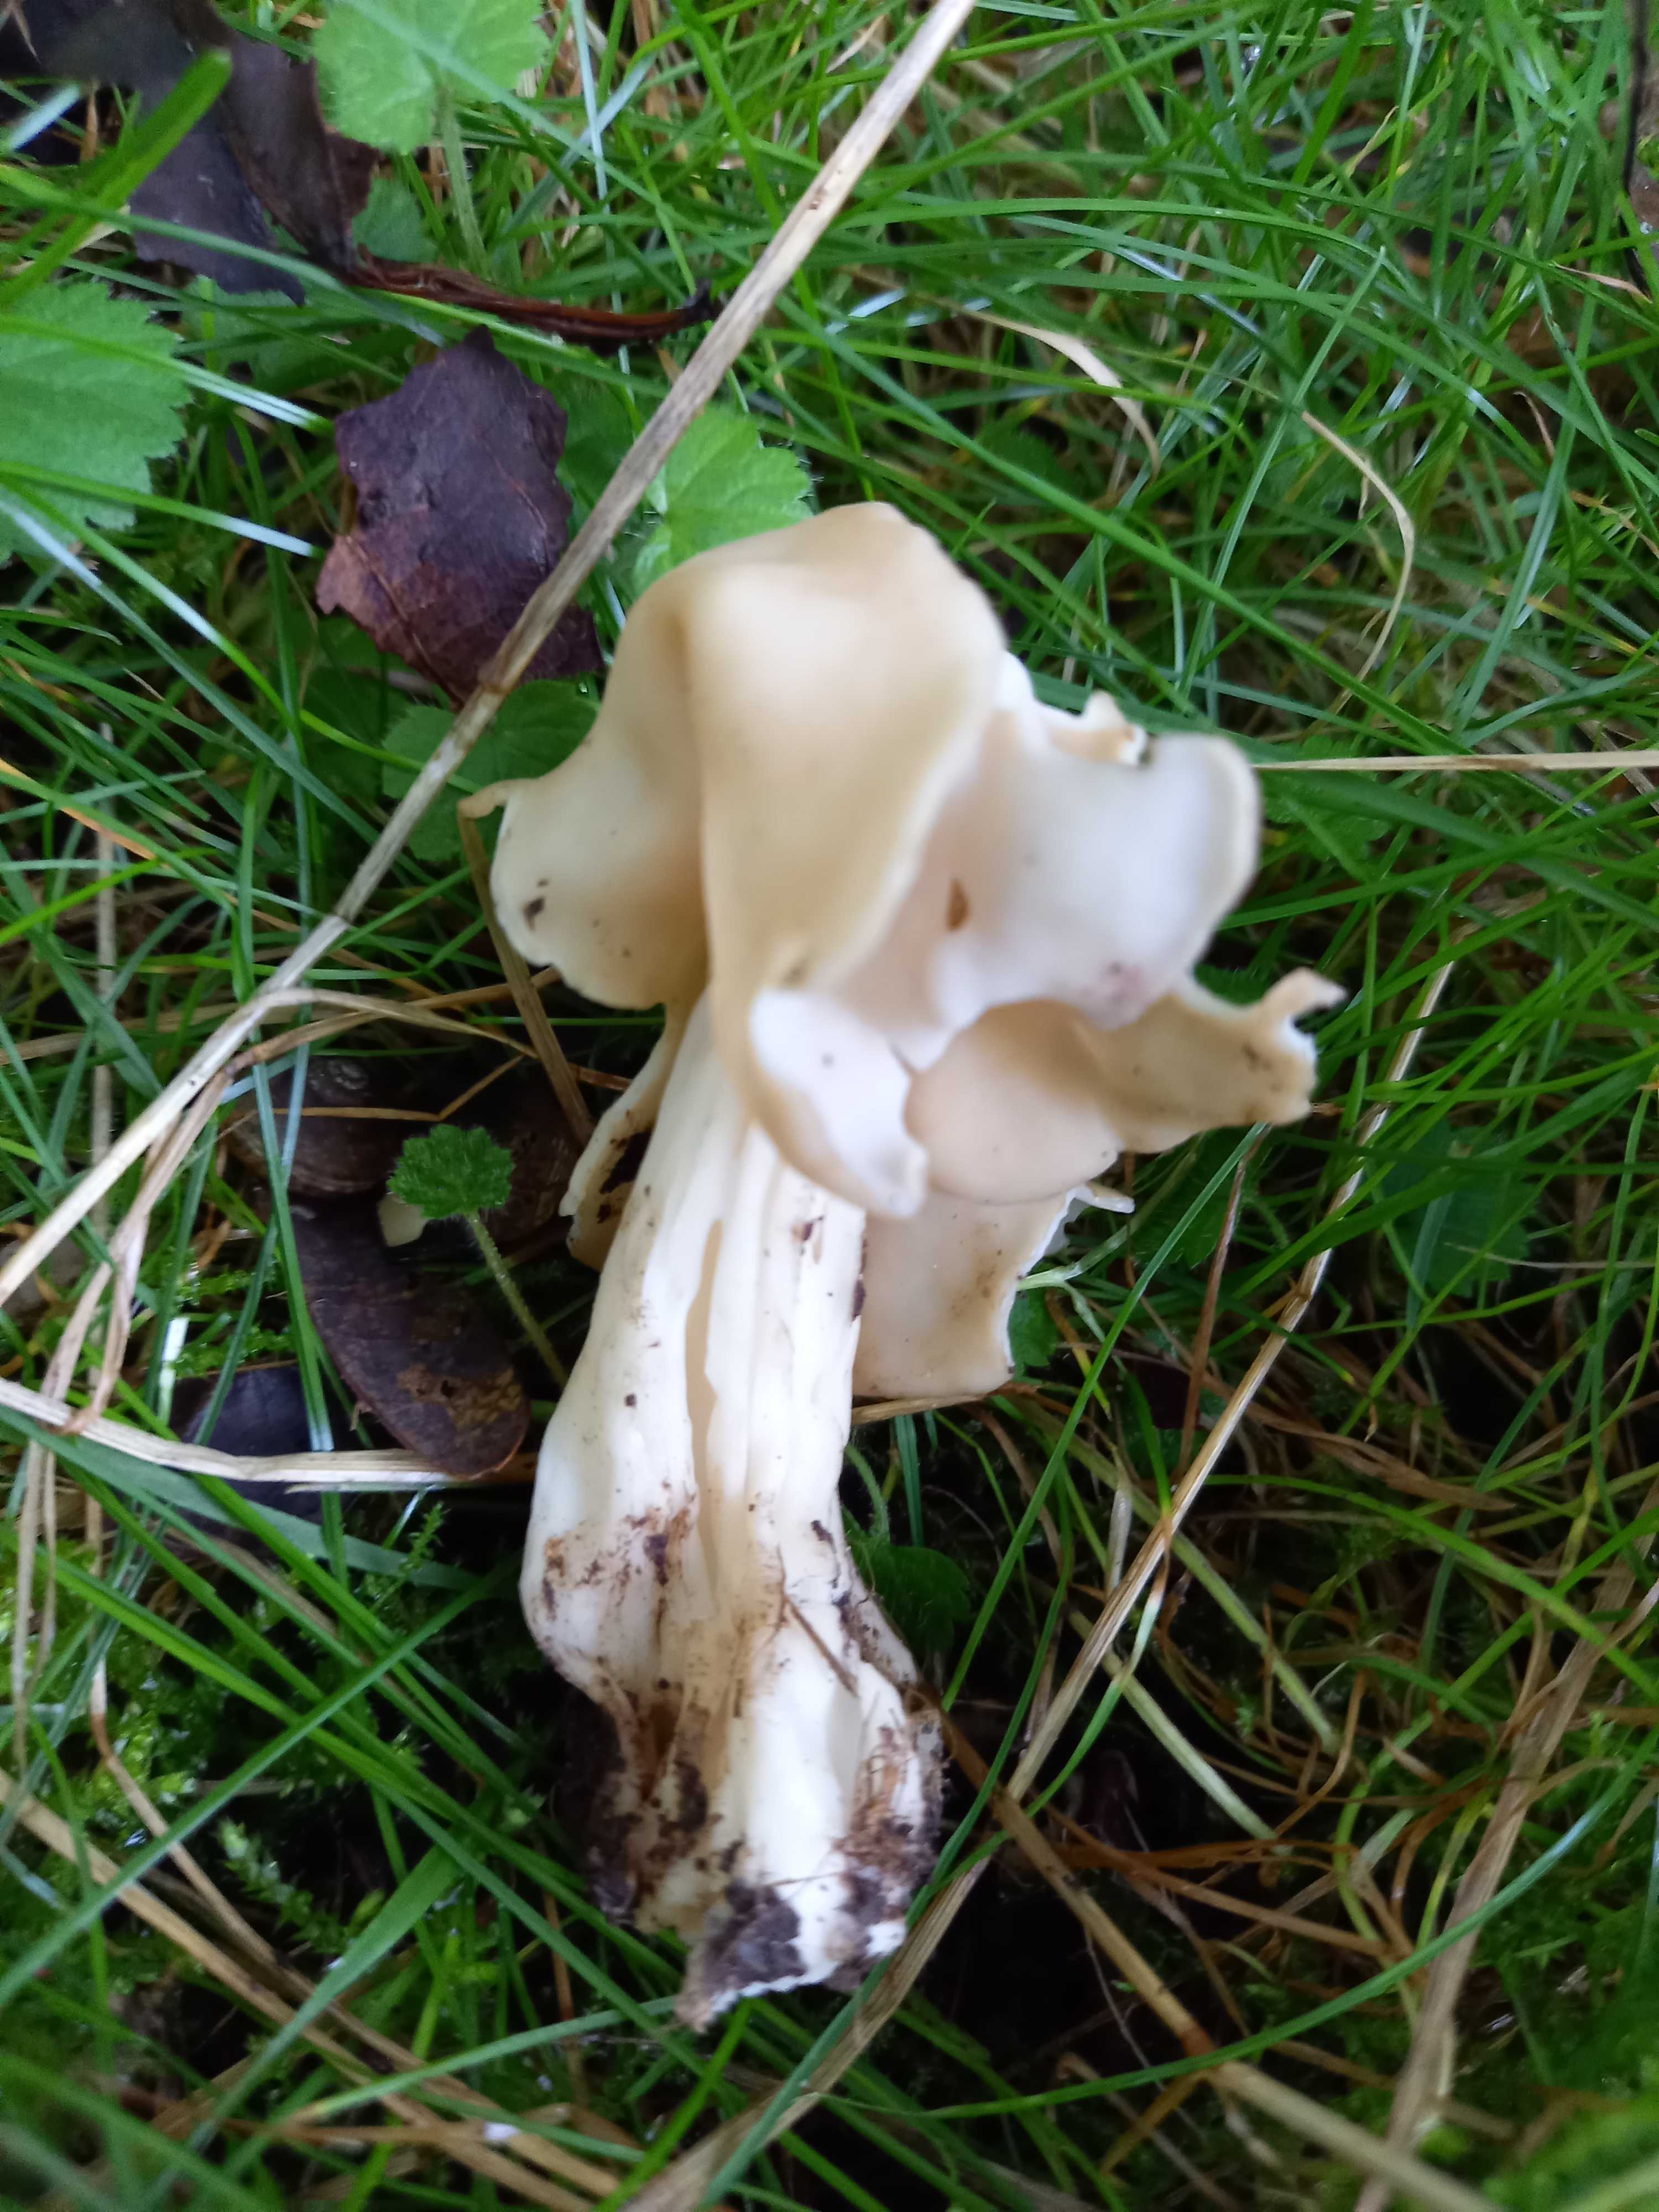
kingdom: Fungi
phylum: Ascomycota
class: Pezizomycetes
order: Pezizales
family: Helvellaceae
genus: Helvella
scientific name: Helvella crispa
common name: kruset foldhat
